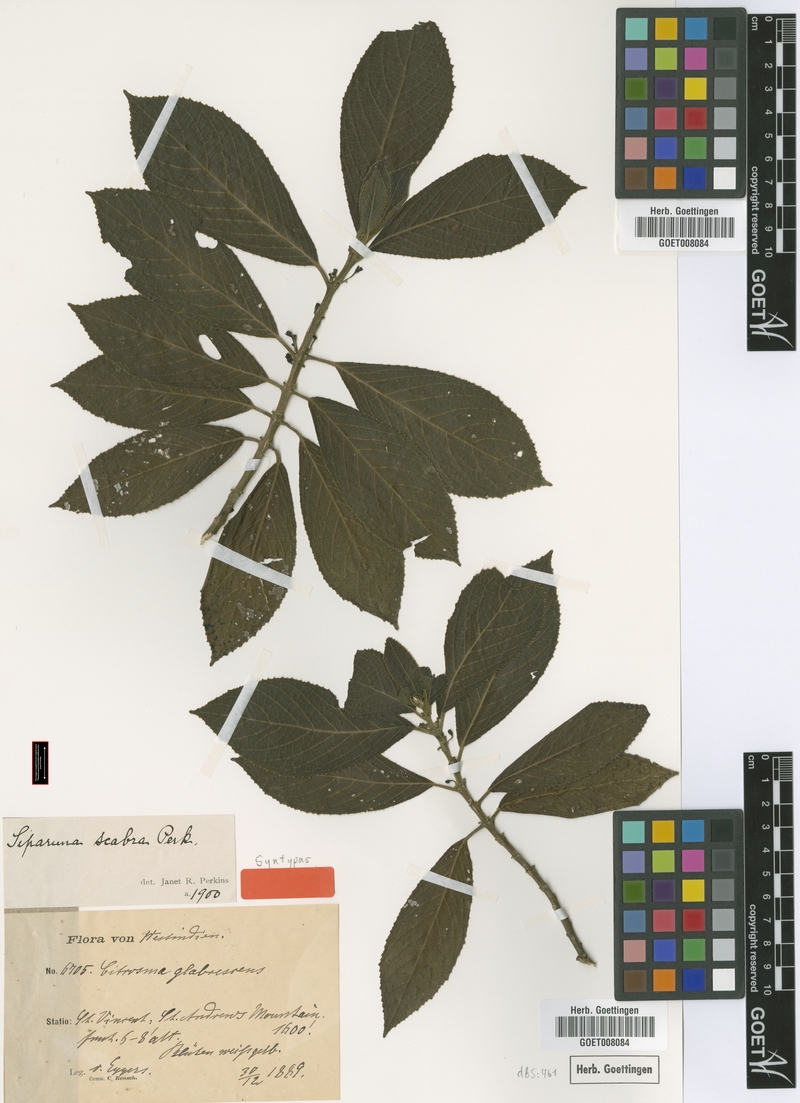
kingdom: Plantae
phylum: Tracheophyta
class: Magnoliopsida
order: Laurales
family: Siparunaceae
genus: Siparuna
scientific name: Siparuna glabrescens
